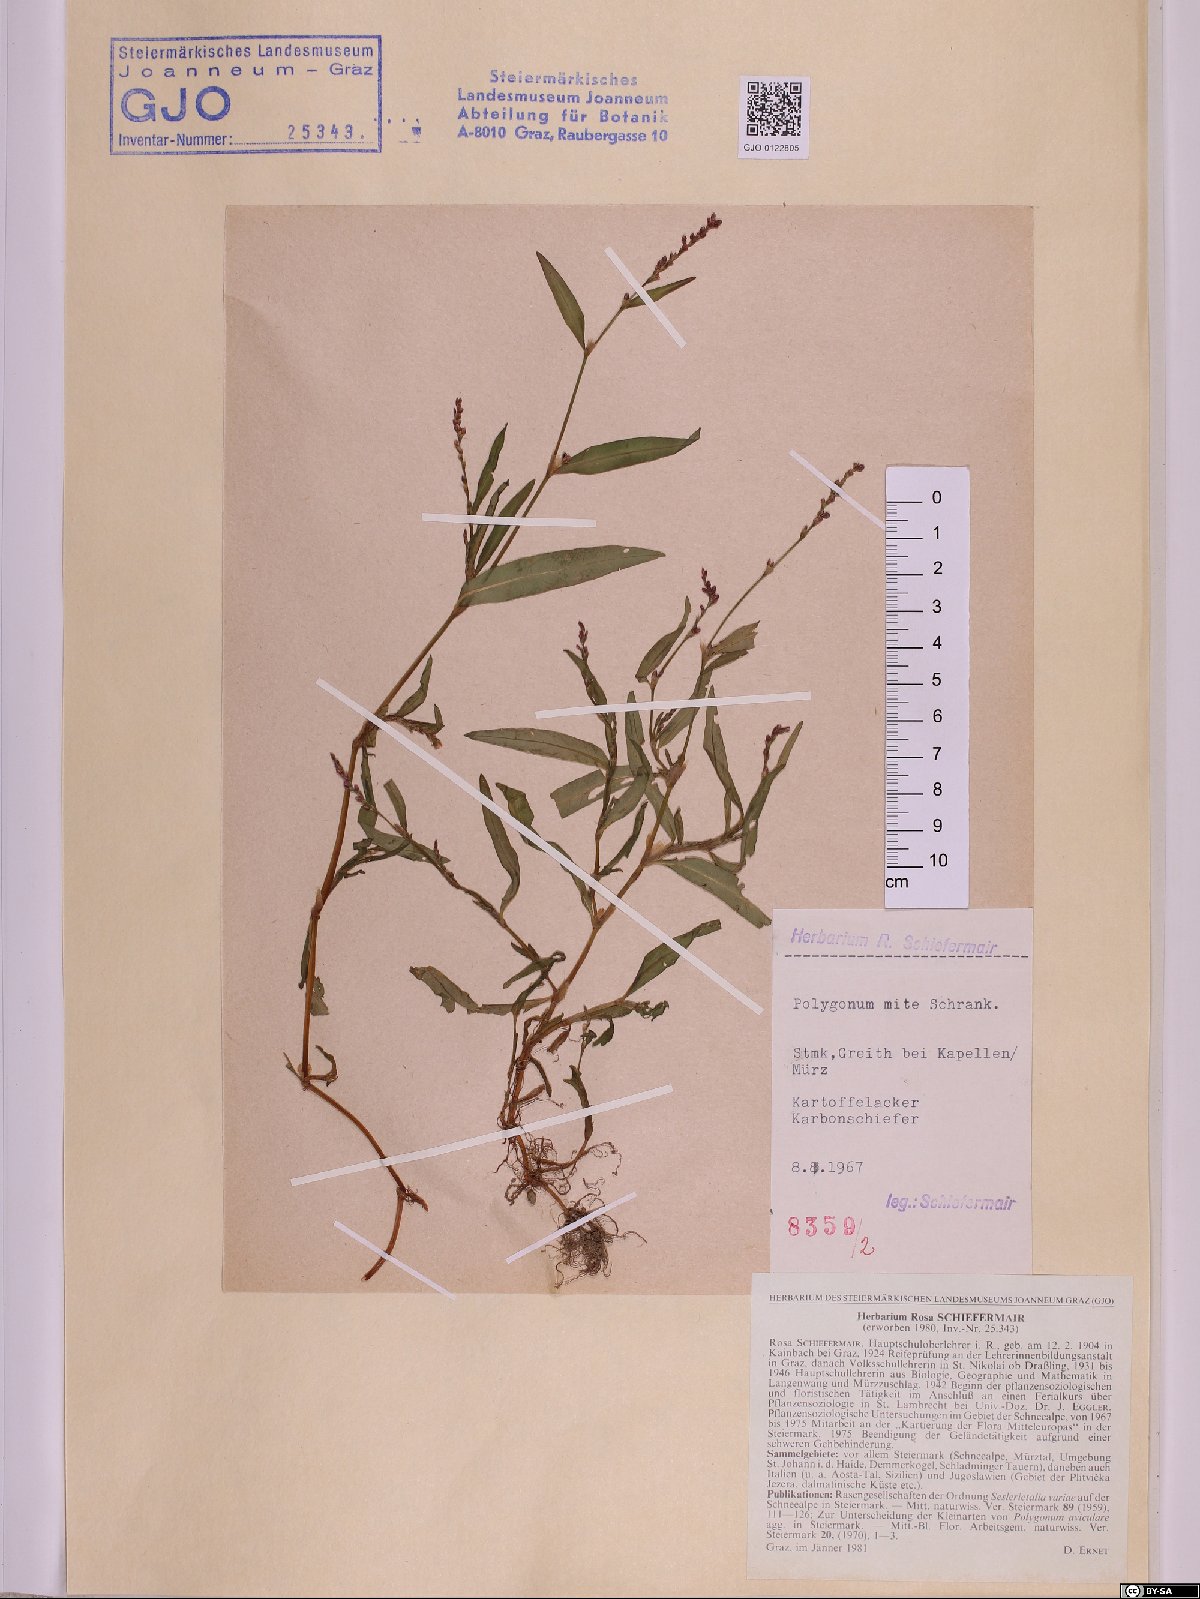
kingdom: Plantae
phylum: Tracheophyta
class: Magnoliopsida
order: Caryophyllales
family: Polygonaceae
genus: Persicaria
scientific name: Persicaria mitis
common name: Tasteless water-pepper
